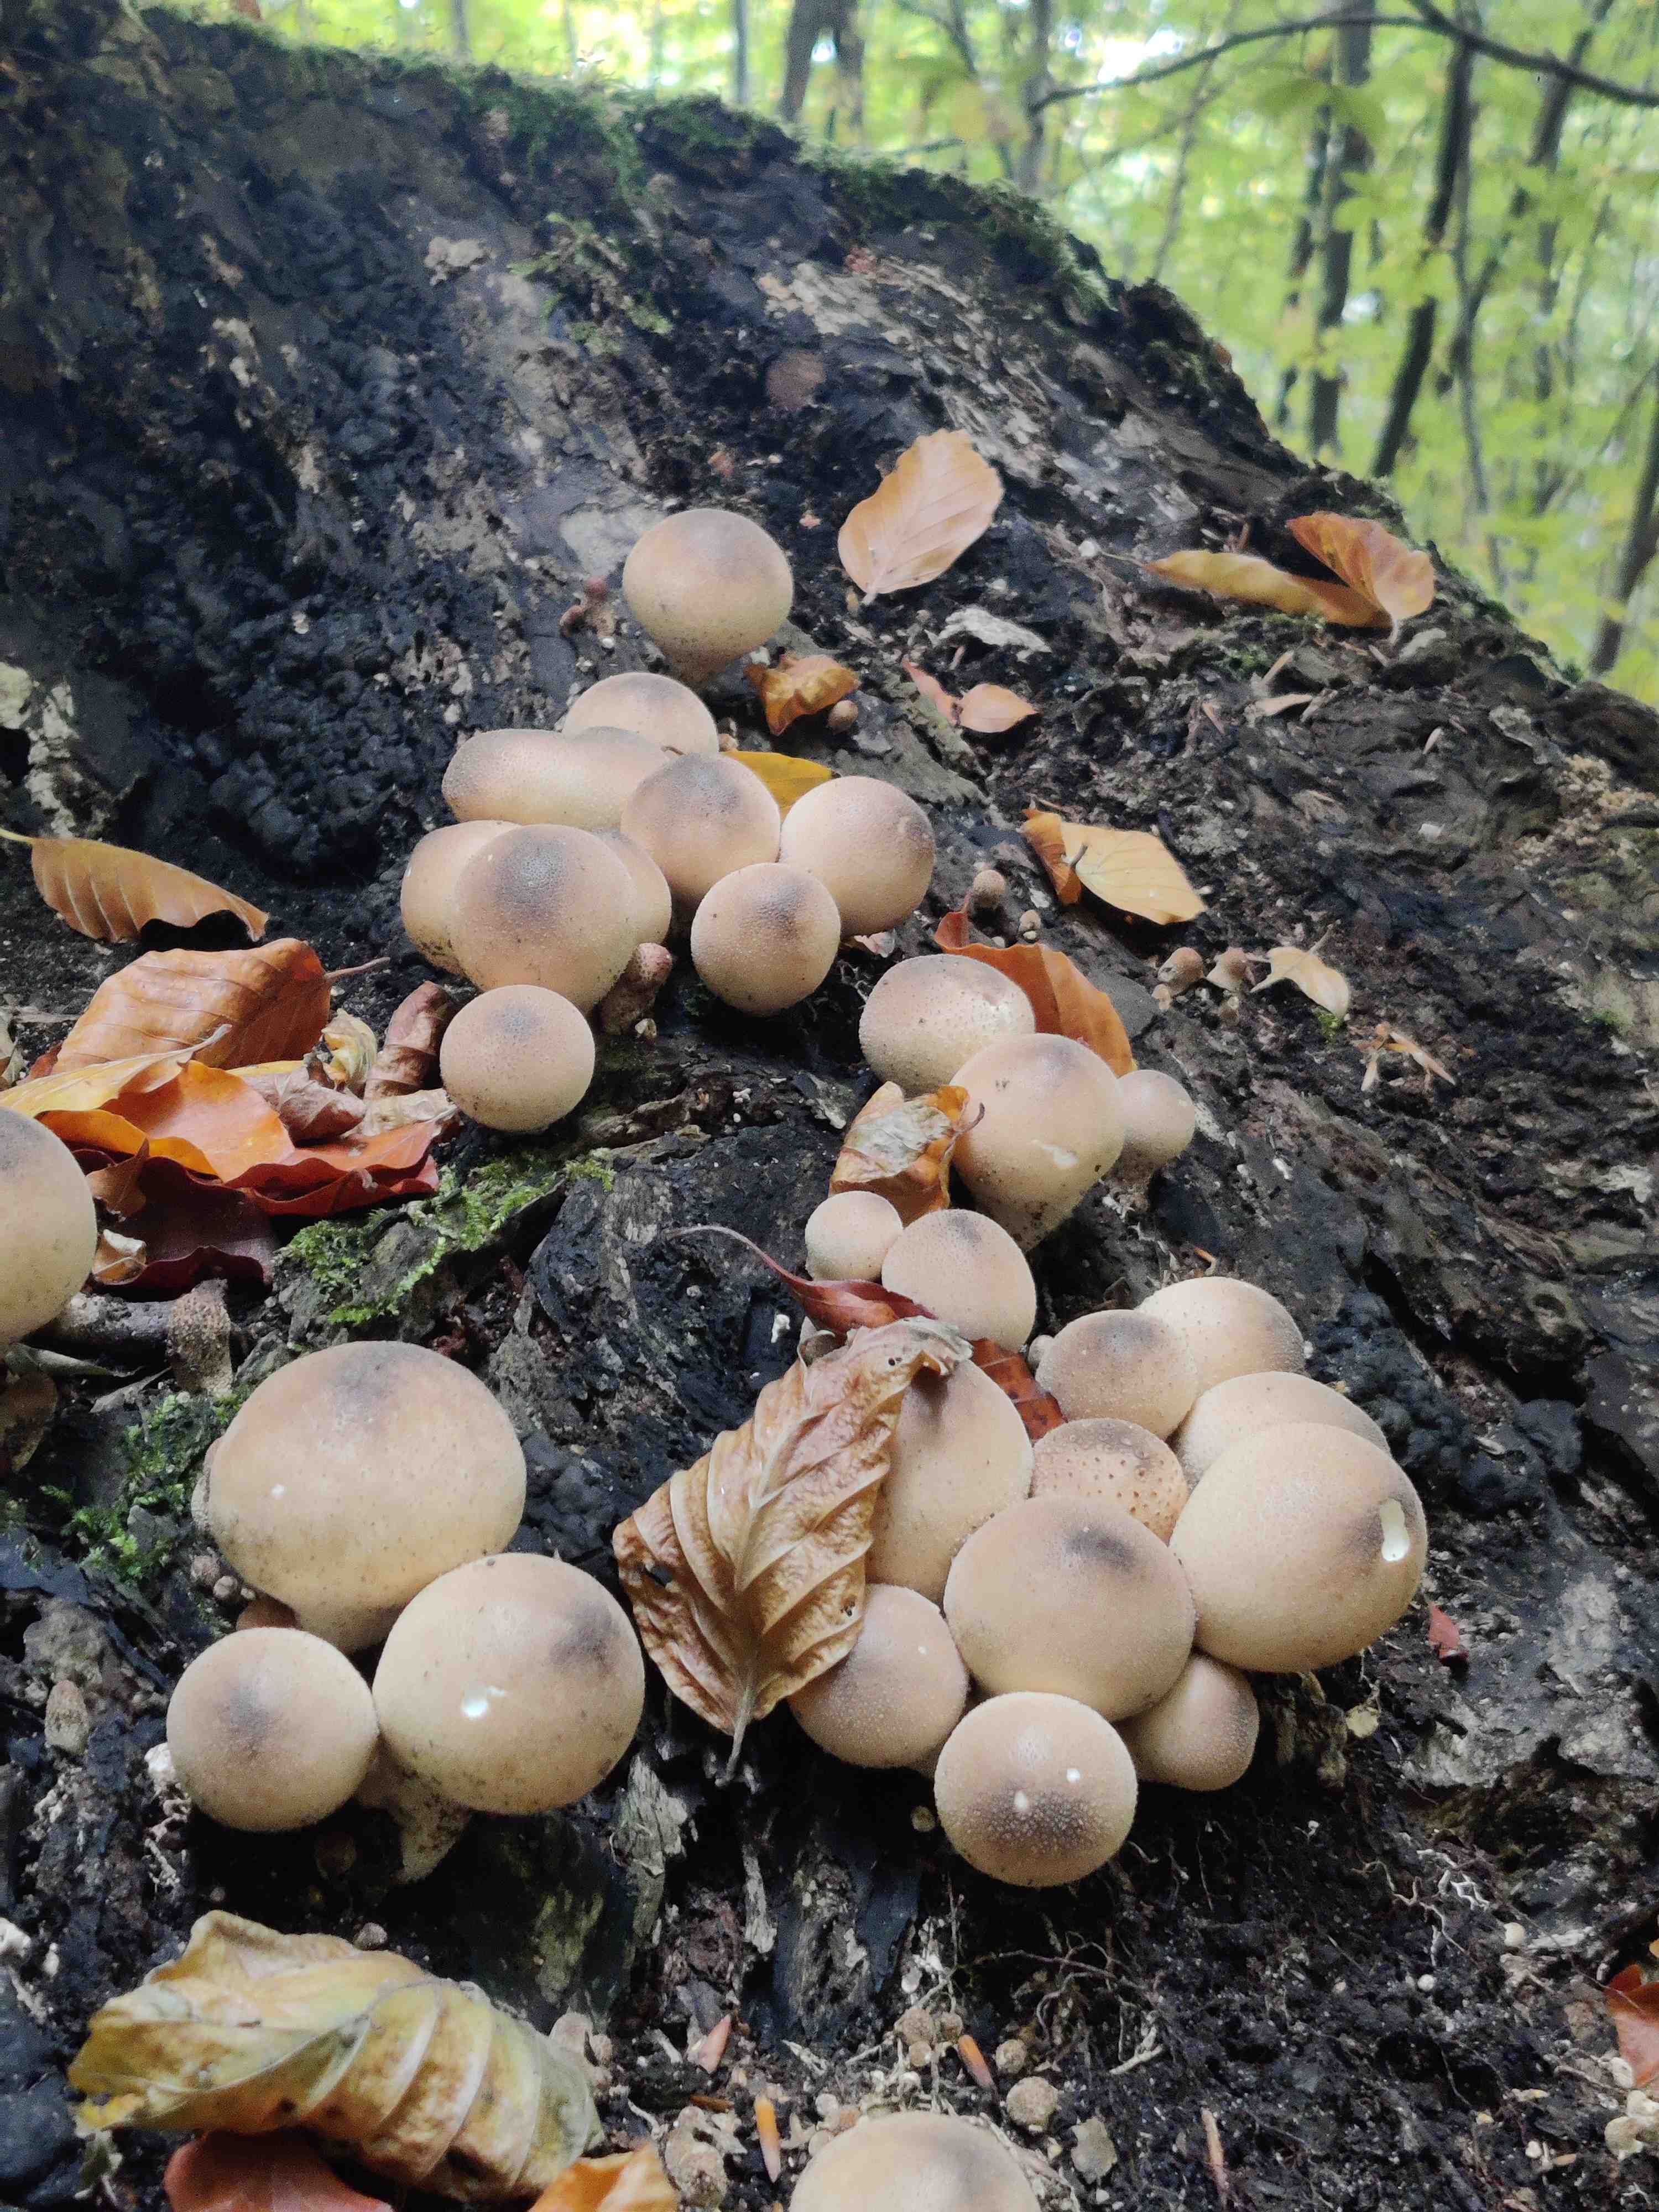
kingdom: Fungi
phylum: Basidiomycota
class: Agaricomycetes
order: Agaricales
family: Lycoperdaceae
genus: Apioperdon
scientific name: Apioperdon pyriforme
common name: pære-støvbold
